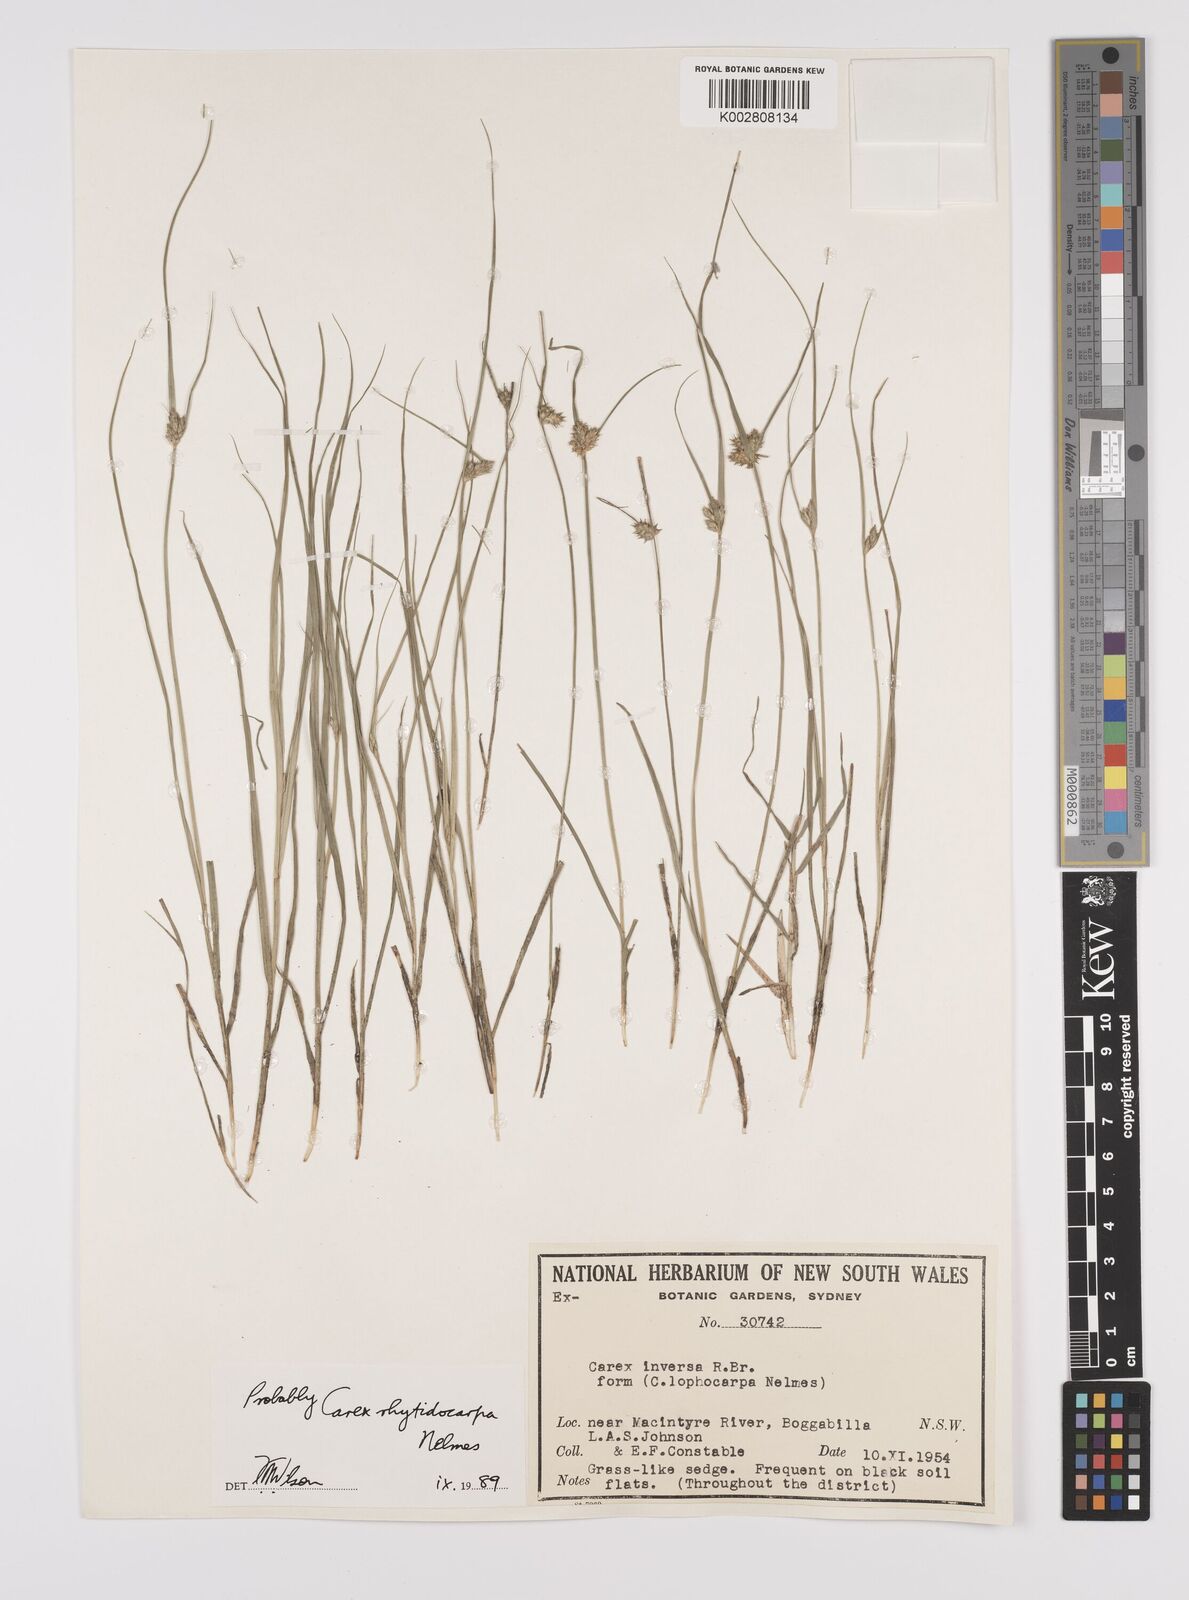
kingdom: Plantae
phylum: Tracheophyta
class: Liliopsida
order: Poales
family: Cyperaceae
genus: Carex
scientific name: Carex inversa
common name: Knob sedge
